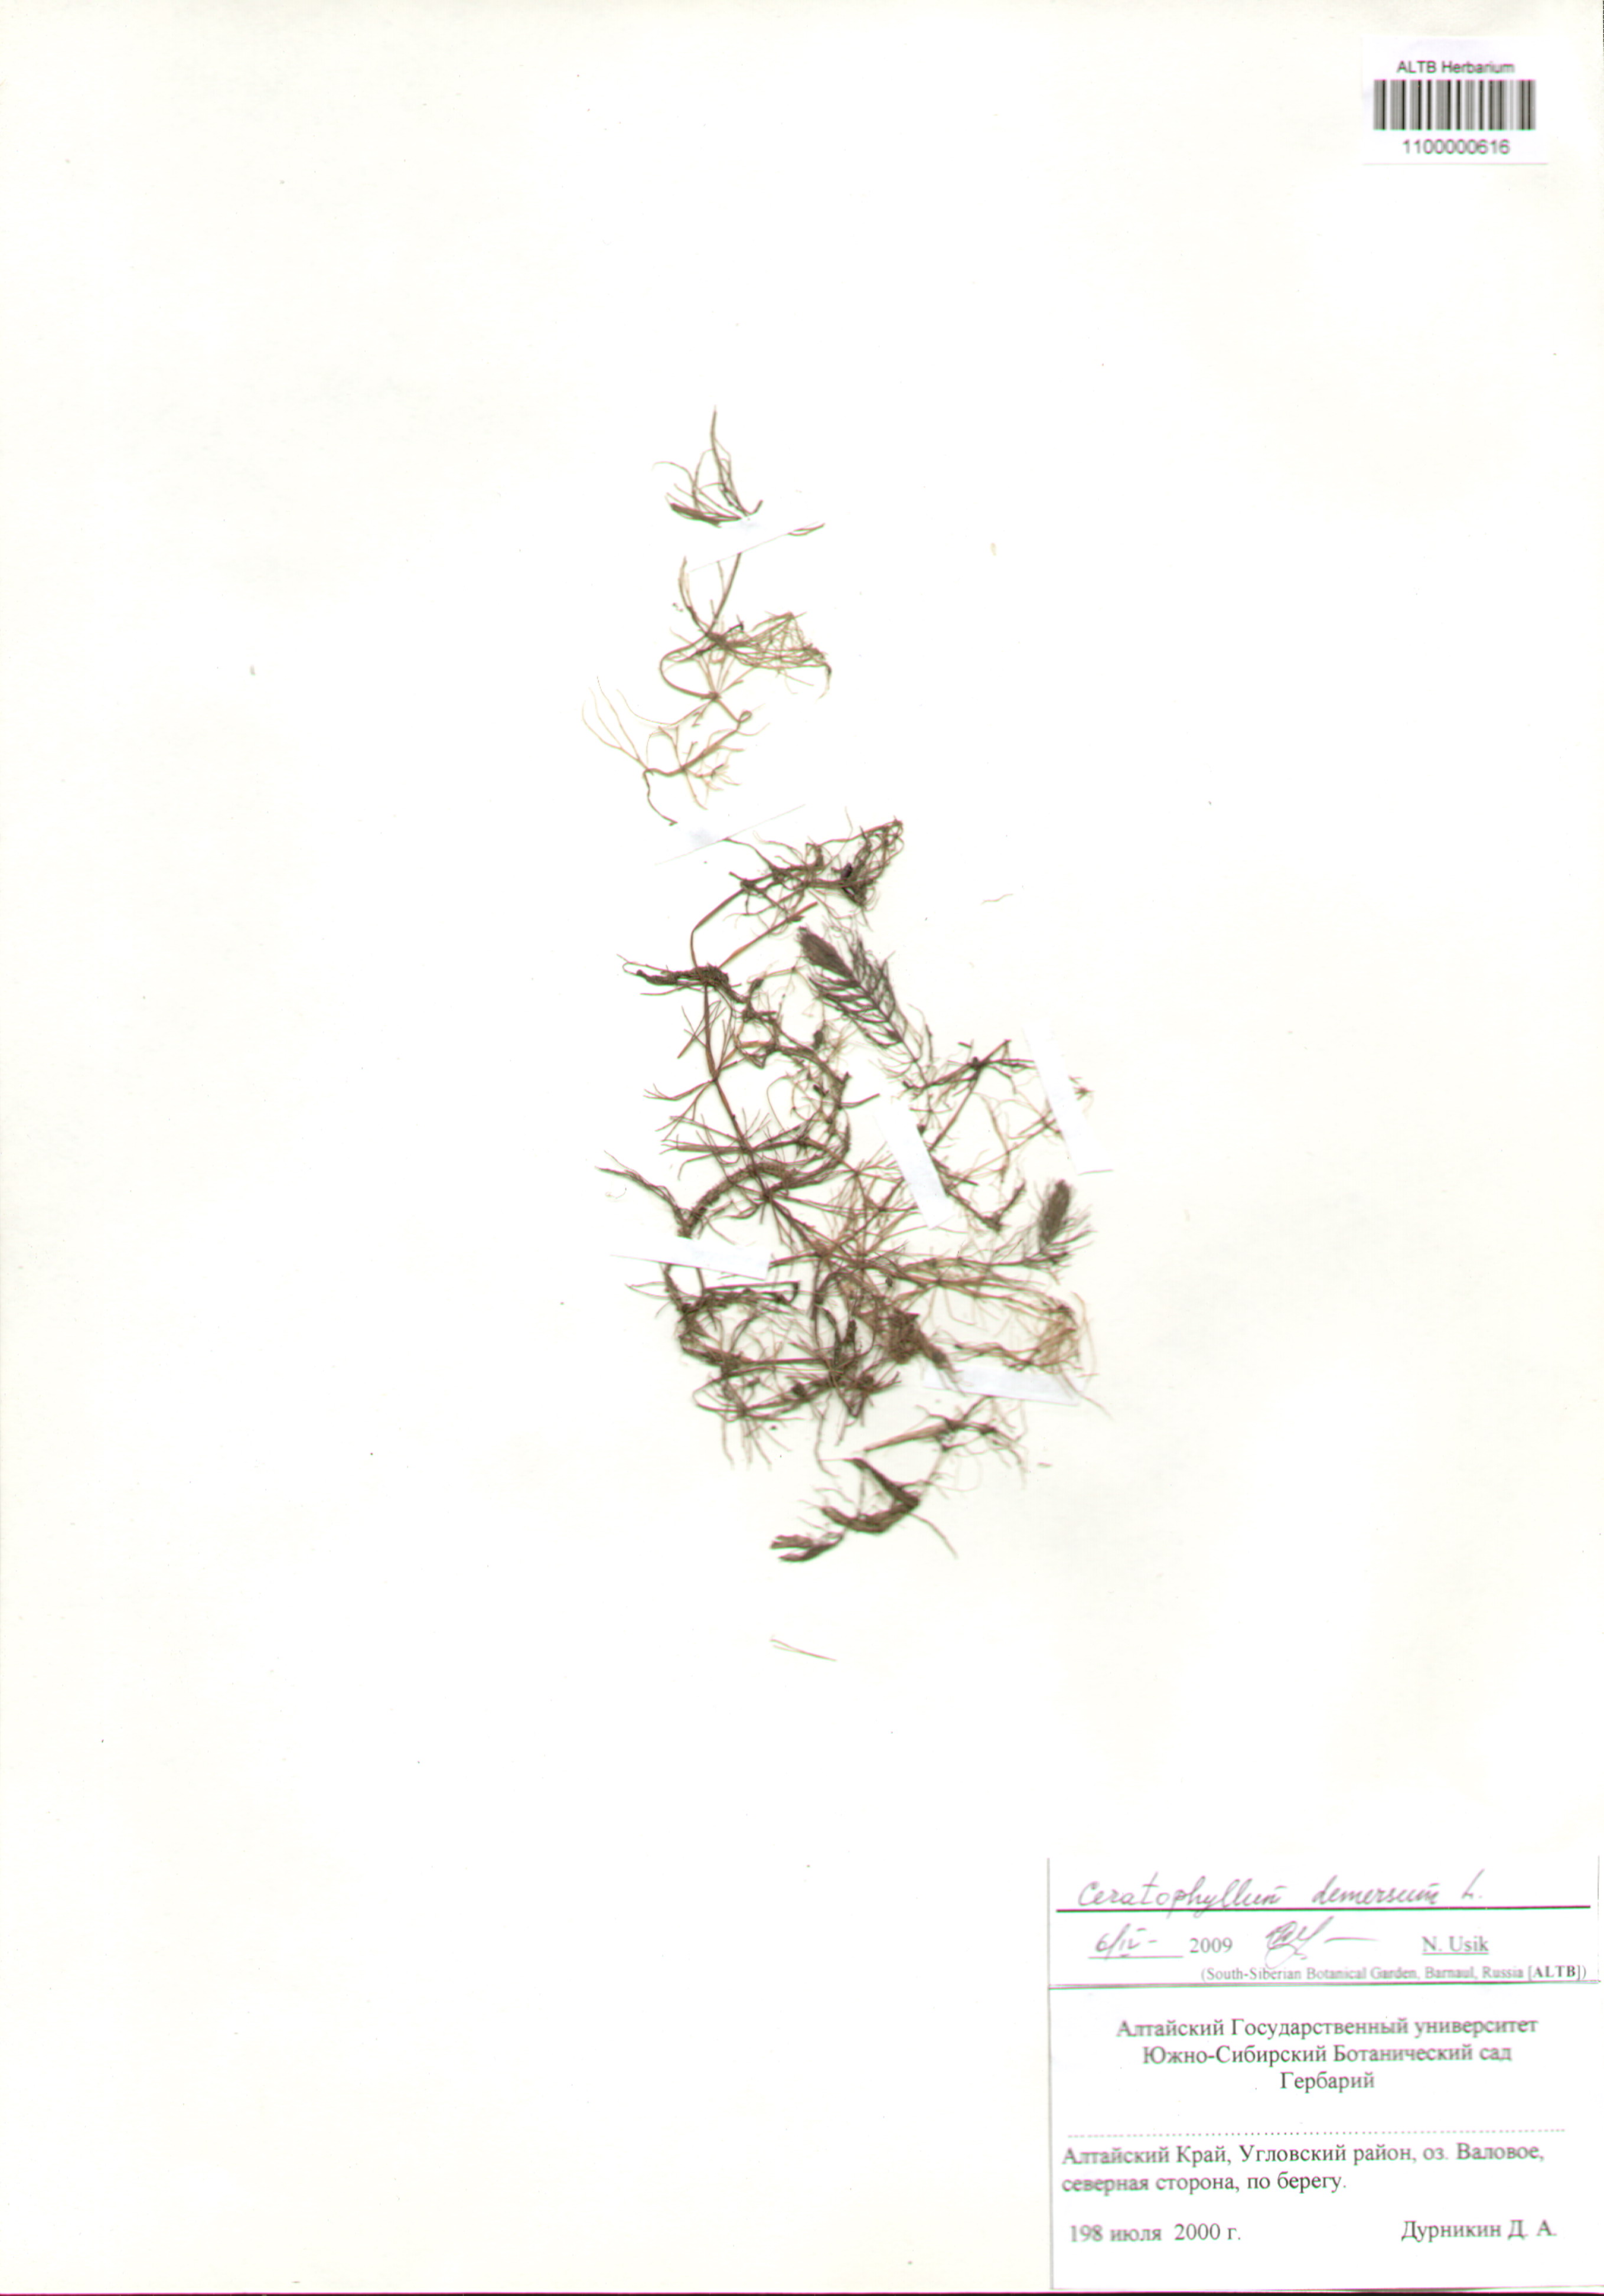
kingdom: Plantae
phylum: Tracheophyta
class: Magnoliopsida
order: Ceratophyllales
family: Ceratophyllaceae
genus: Ceratophyllum
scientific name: Ceratophyllum demersum
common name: Rigid hornwort
